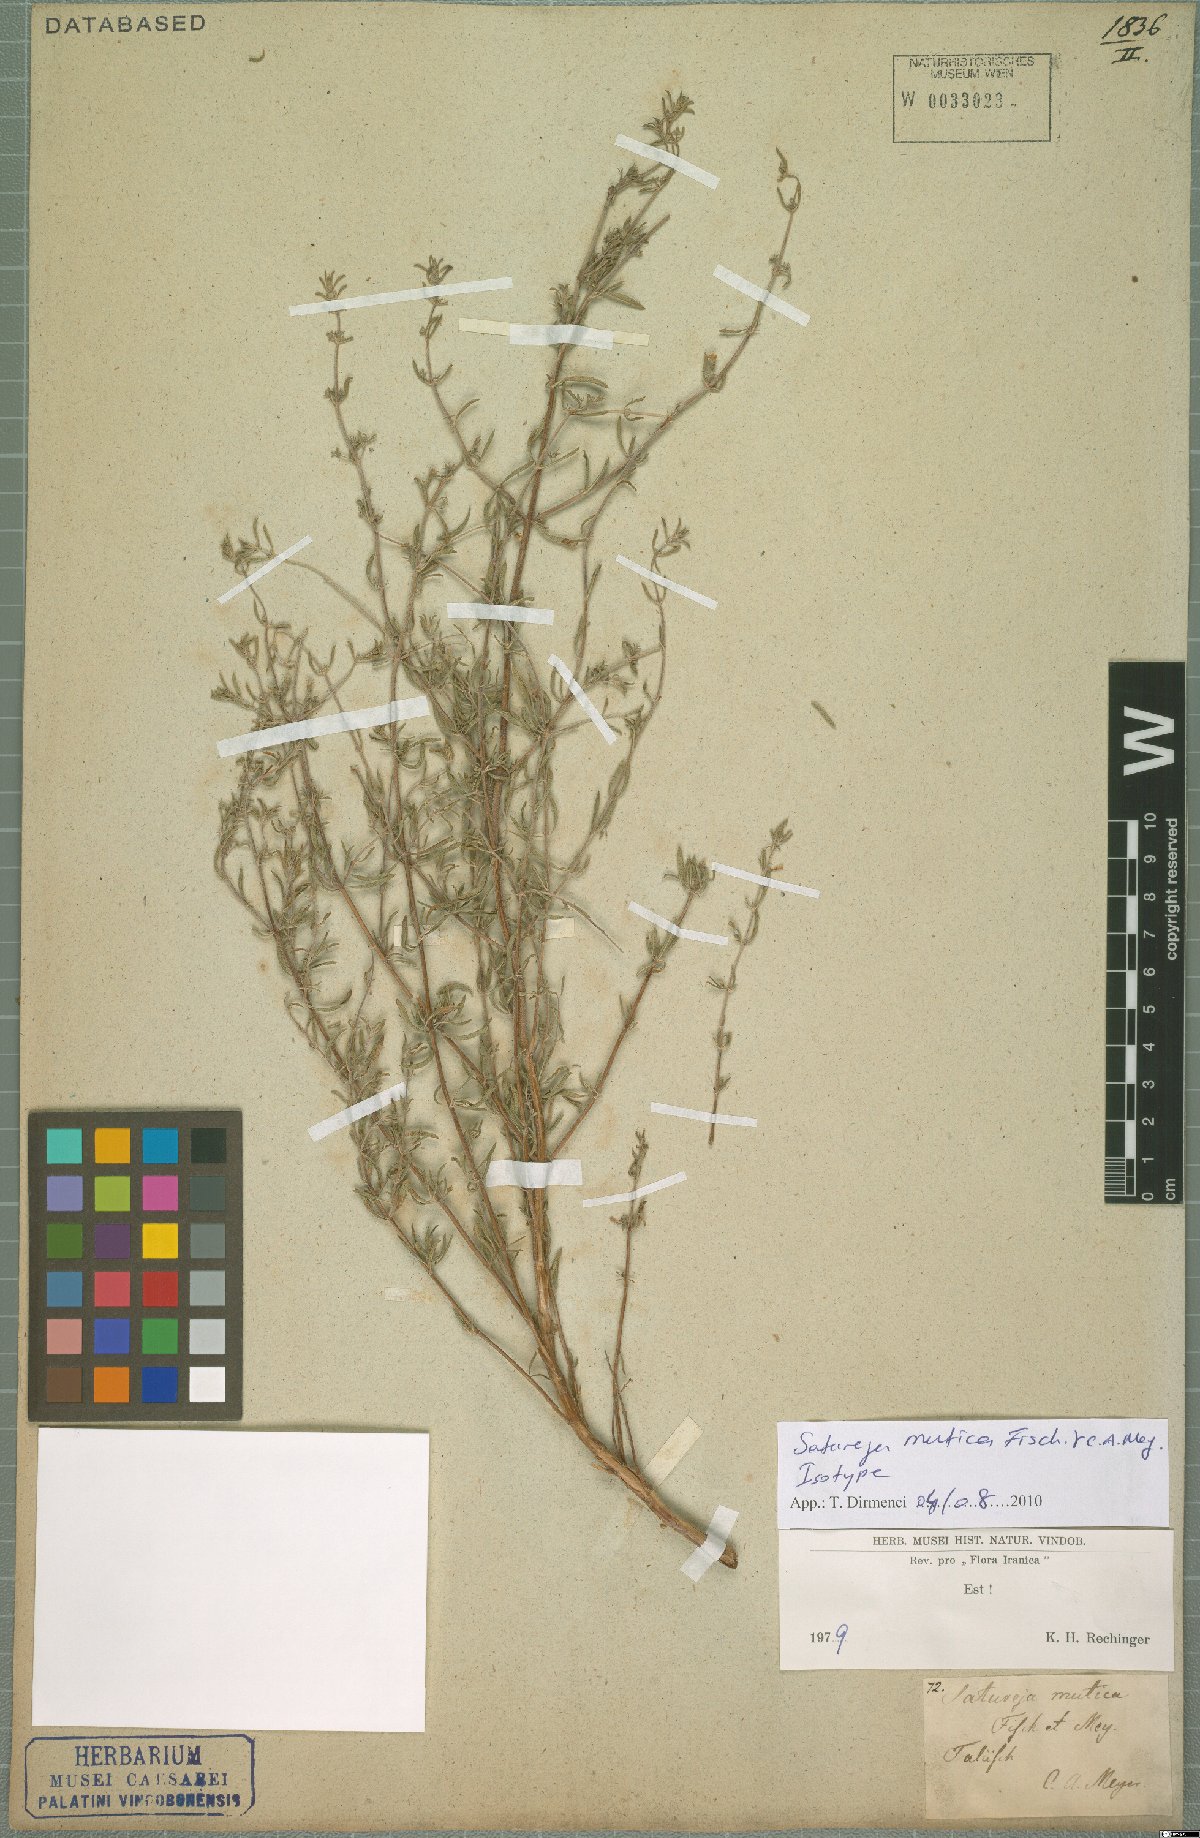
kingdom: Plantae
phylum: Tracheophyta
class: Magnoliopsida
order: Lamiales
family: Lamiaceae
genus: Satureja
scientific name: Satureja mutica
